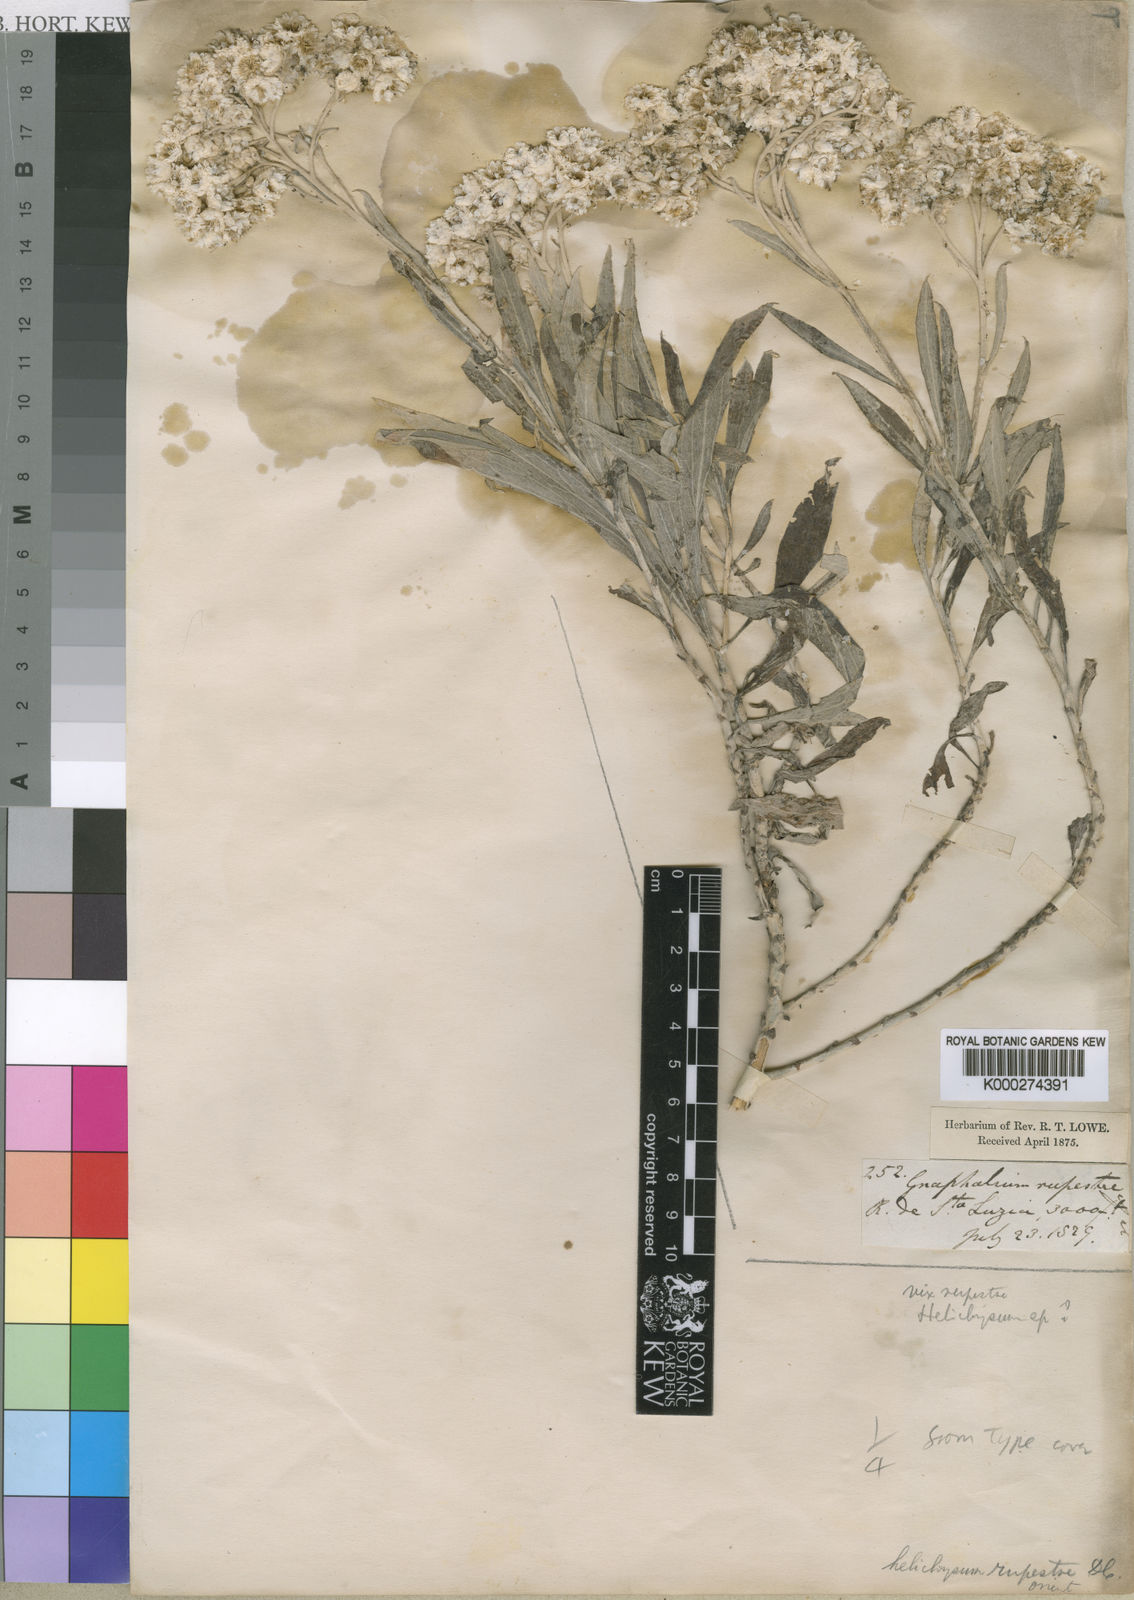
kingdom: Plantae
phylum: Tracheophyta
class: Magnoliopsida
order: Asterales
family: Asteraceae
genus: Helichrysum
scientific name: Helichrysum
